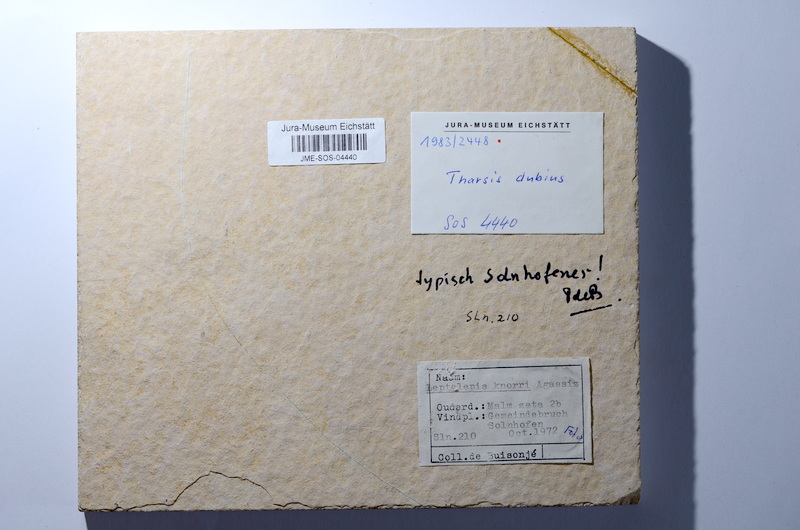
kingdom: Animalia
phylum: Chordata
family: Ascalaboidae
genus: Tharsis
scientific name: Tharsis dubius
